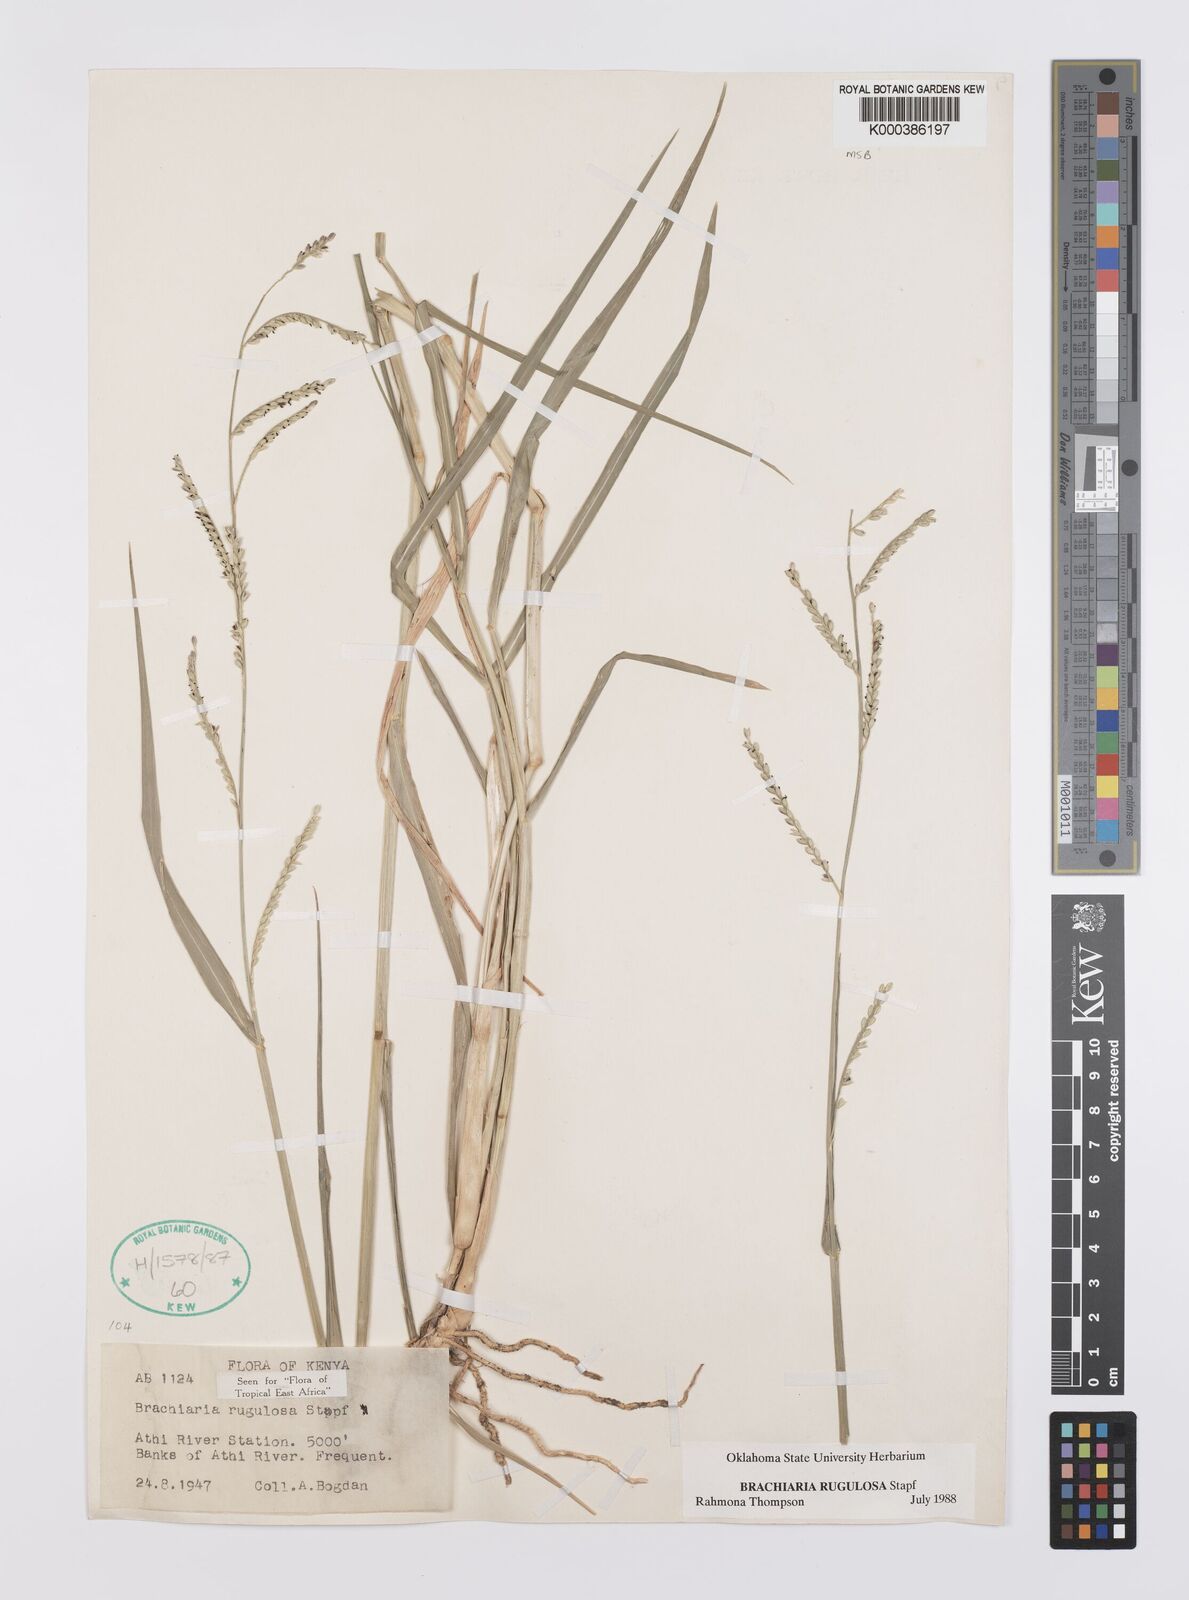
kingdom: Plantae
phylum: Tracheophyta
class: Liliopsida
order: Poales
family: Poaceae
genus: Urochloa
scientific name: Urochloa rugulosa
